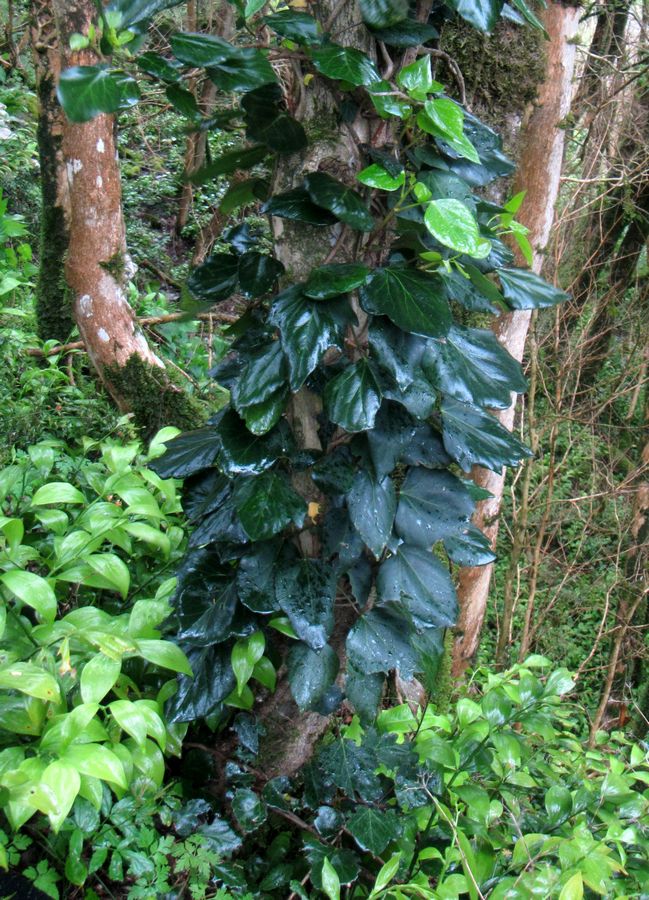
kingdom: Plantae
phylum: Tracheophyta
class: Magnoliopsida
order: Apiales
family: Araliaceae
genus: Hedera
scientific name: Hedera colchica
